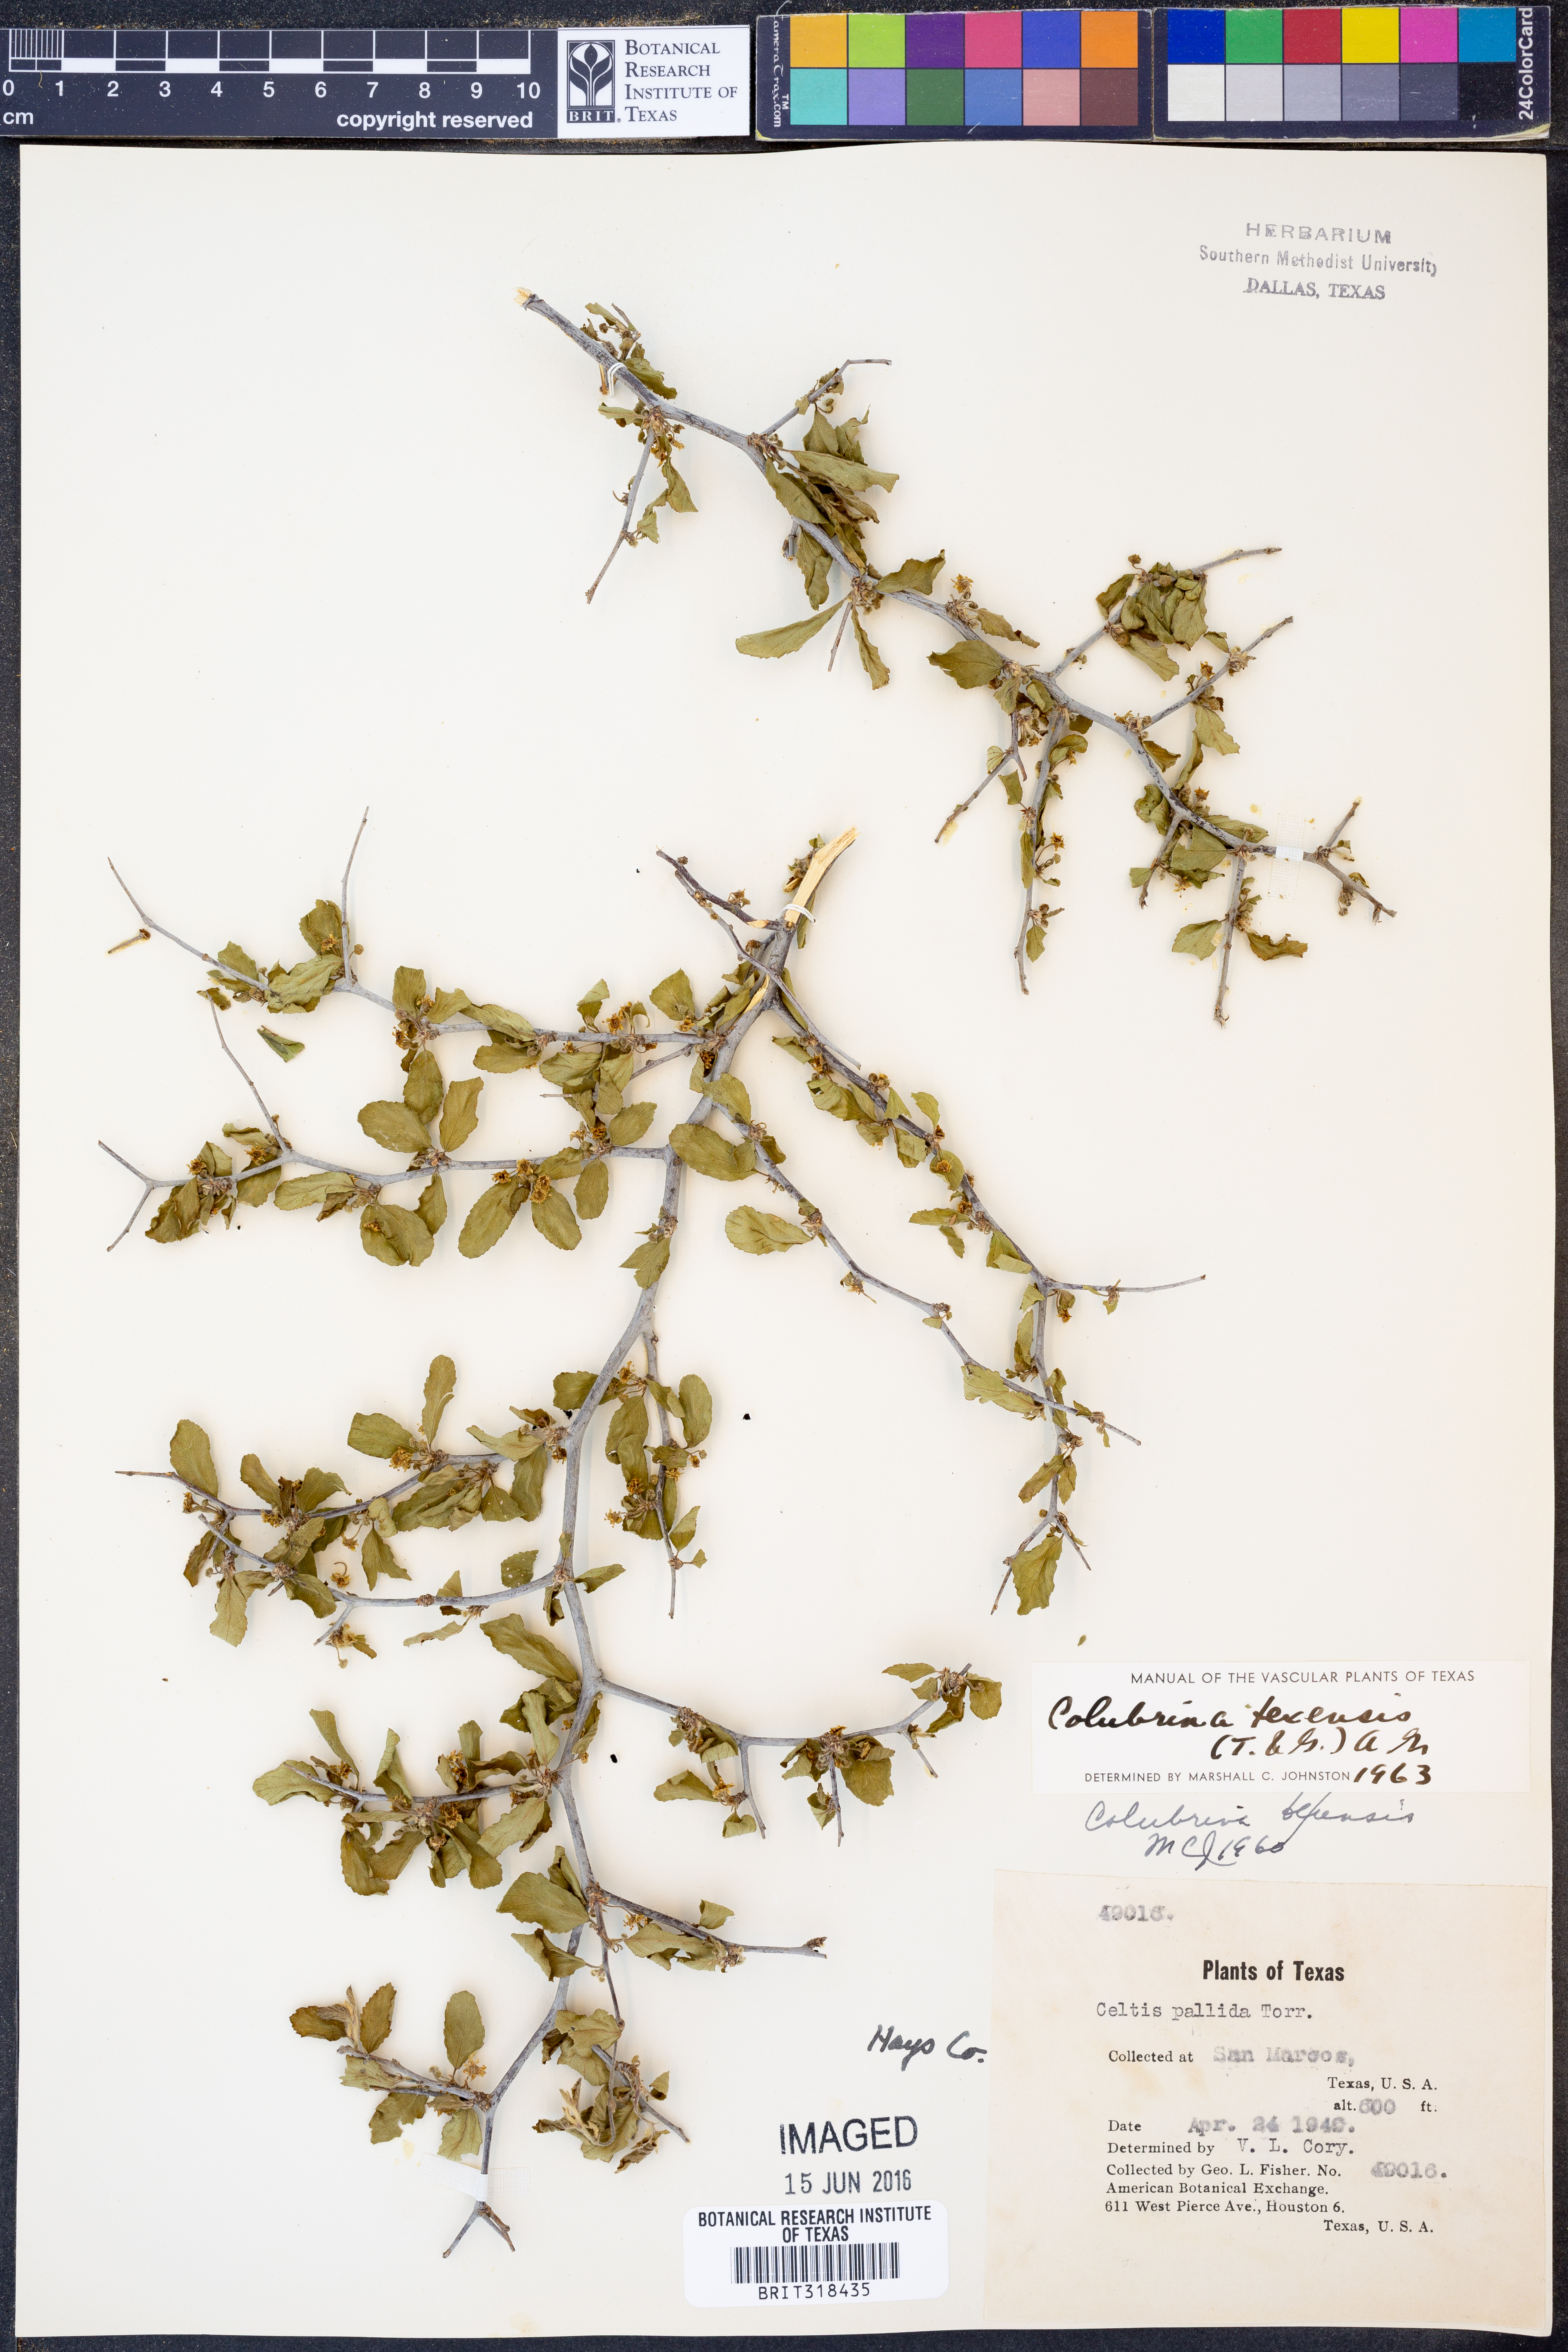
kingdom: Plantae
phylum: Tracheophyta
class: Magnoliopsida
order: Rosales
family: Rhamnaceae
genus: Colubrina
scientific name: Colubrina texensis
